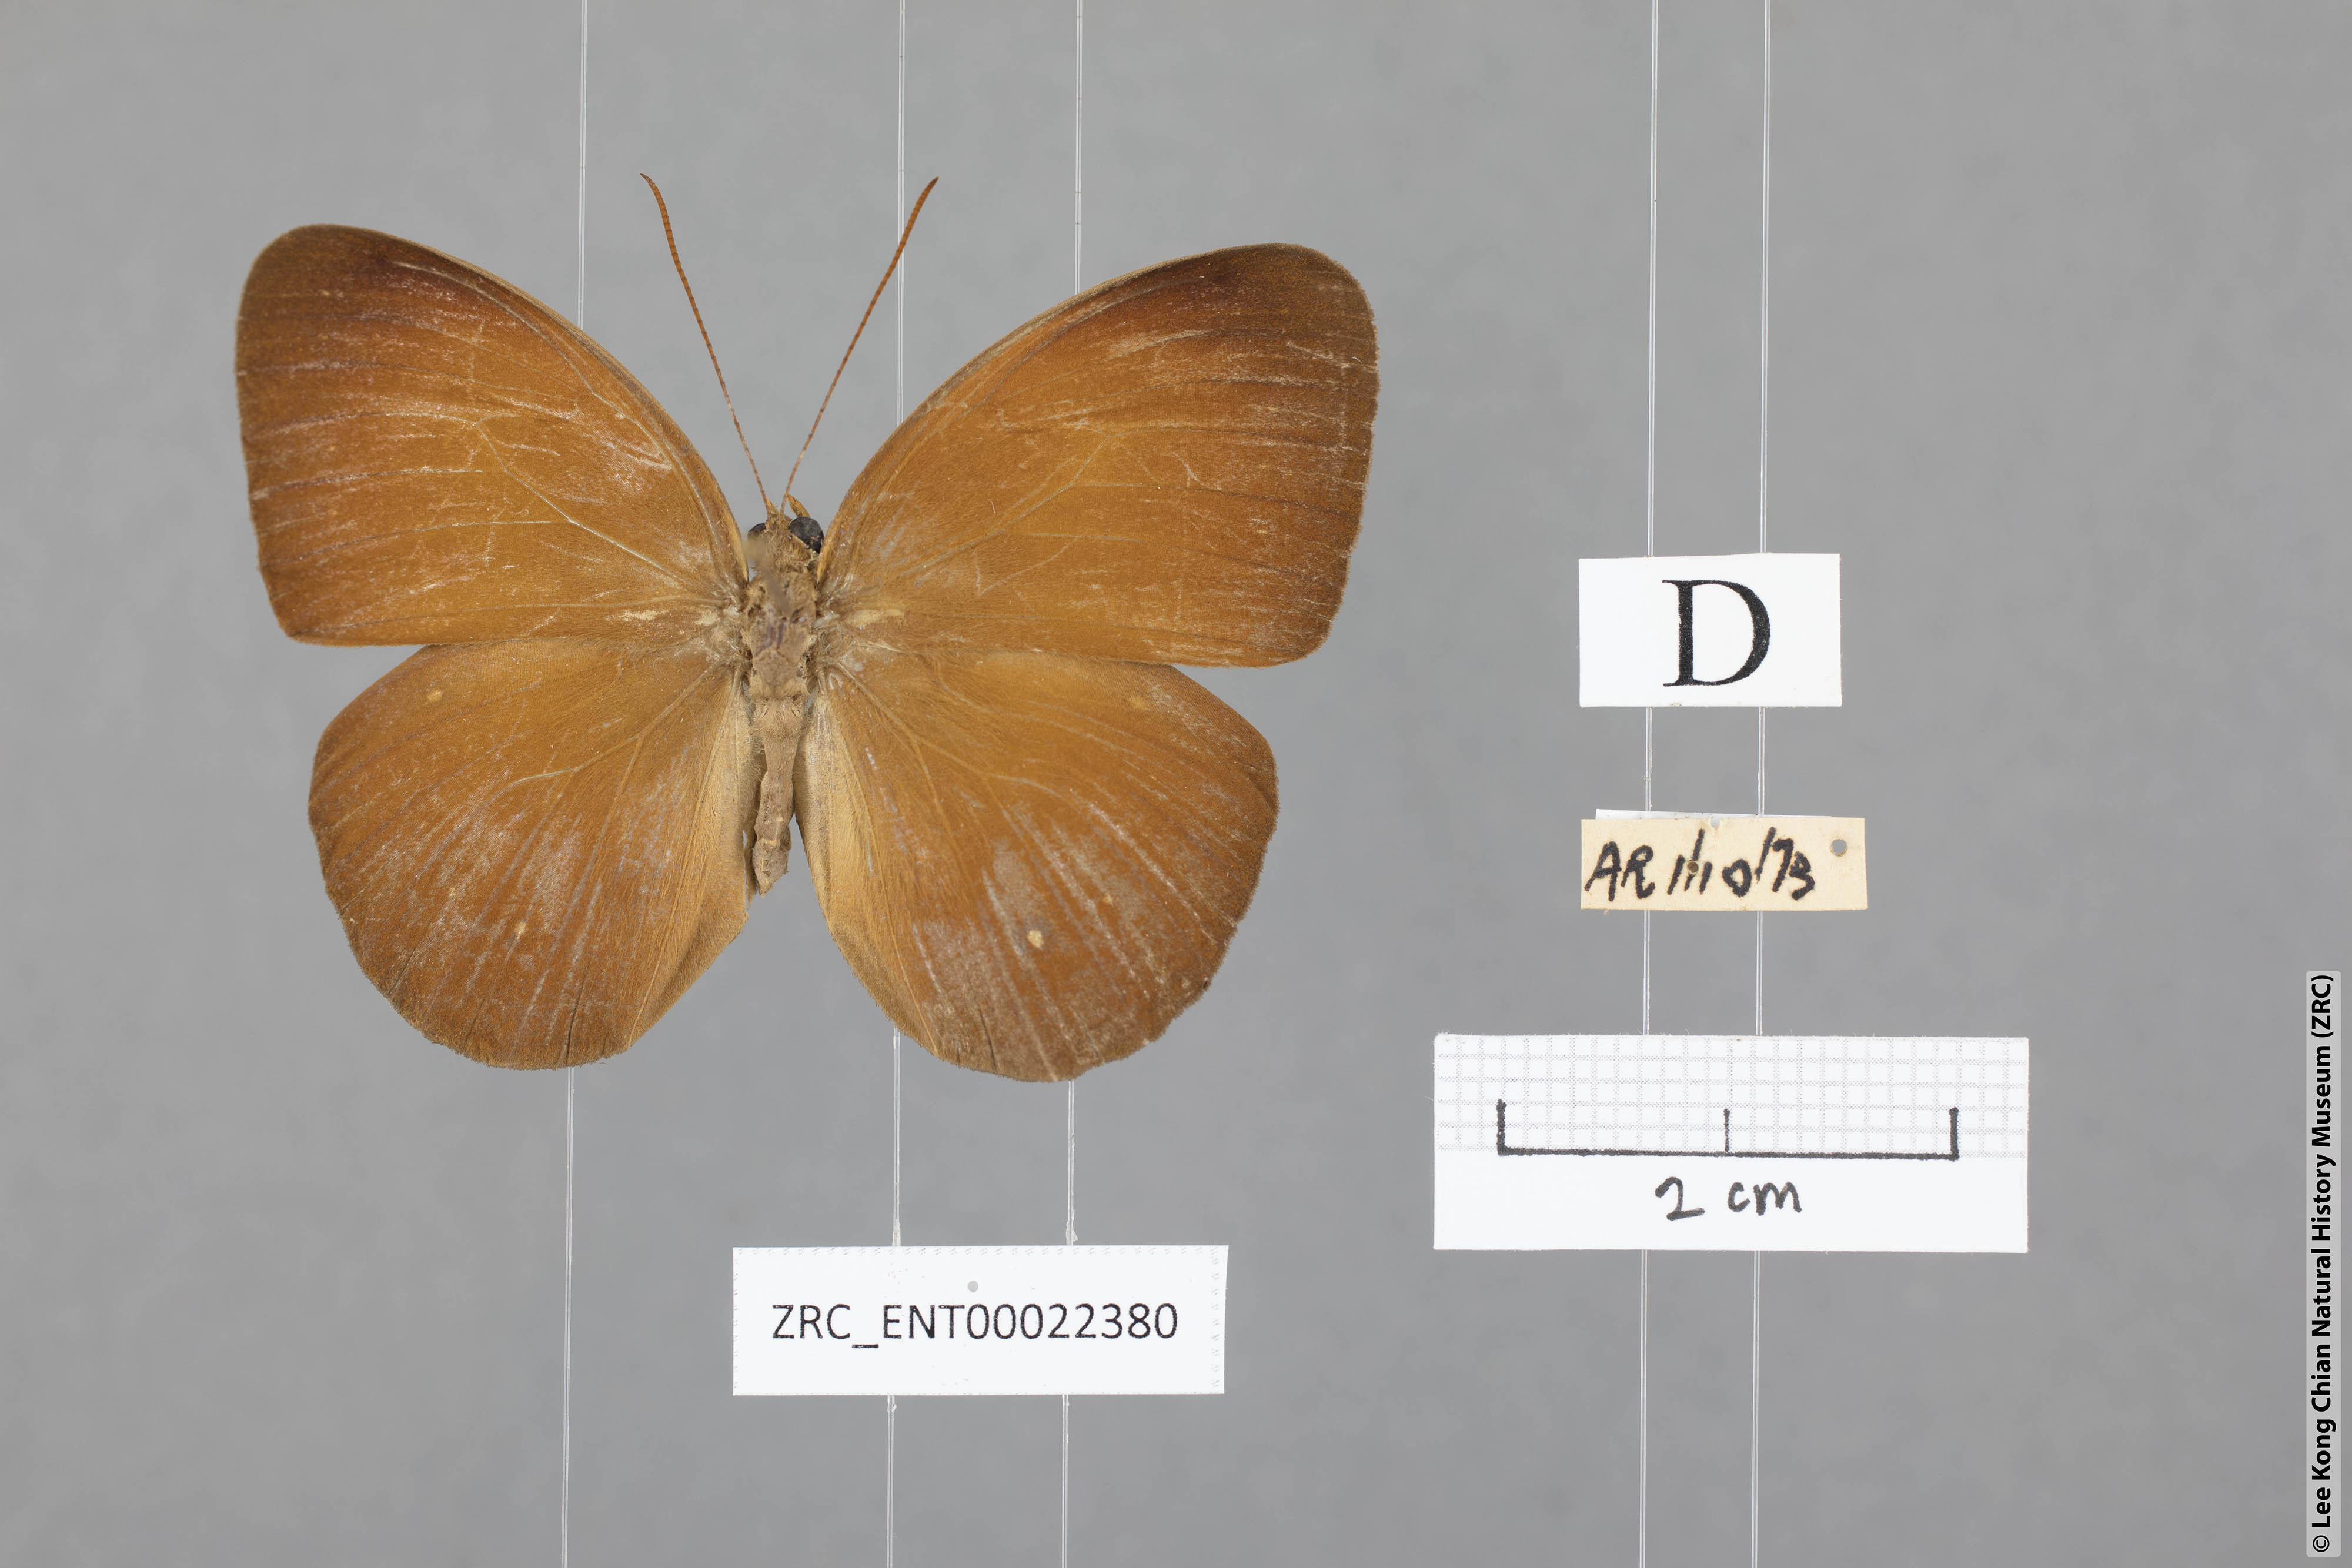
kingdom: Animalia
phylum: Arthropoda
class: Insecta
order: Lepidoptera
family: Nymphalidae
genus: Faunis
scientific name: Faunis gracilis
